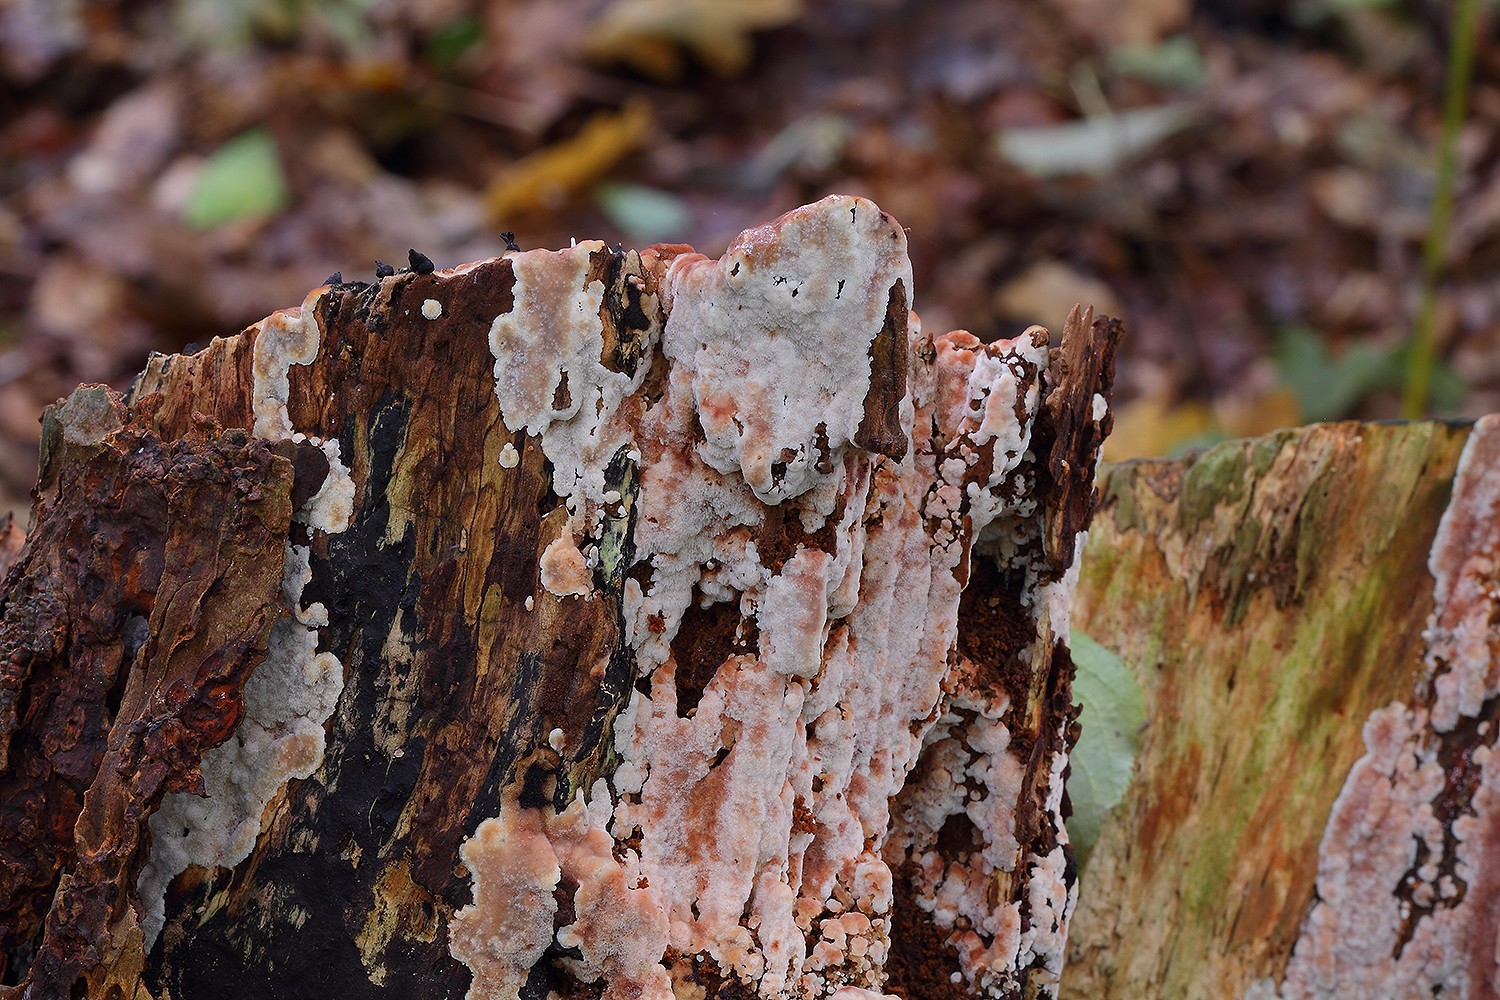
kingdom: Fungi
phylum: Basidiomycota
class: Agaricomycetes
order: Polyporales
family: Meripilaceae
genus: Rigidoporus
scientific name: Rigidoporus sanguinolentus
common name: blod-skorpeporesvamp
